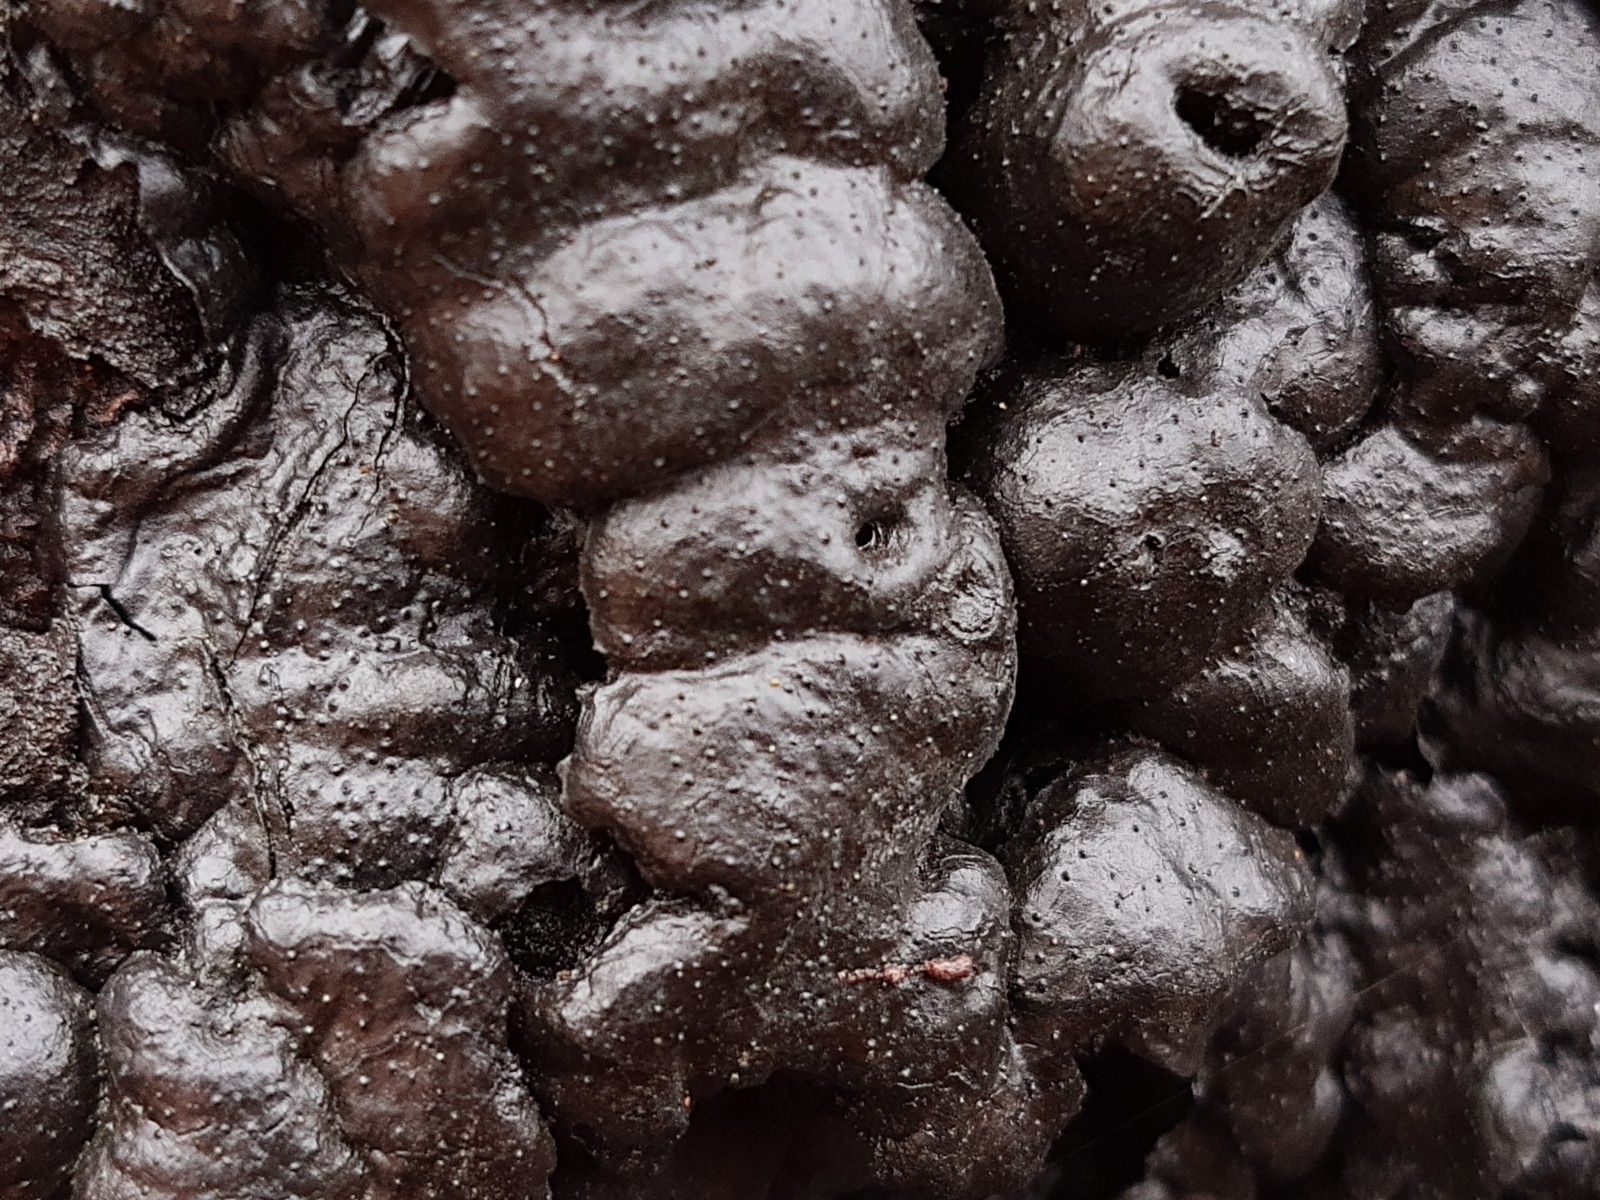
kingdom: Fungi
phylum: Ascomycota
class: Sordariomycetes
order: Xylariales
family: Xylariaceae
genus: Kretzschmaria
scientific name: Kretzschmaria deusta
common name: stor kulsvamp
